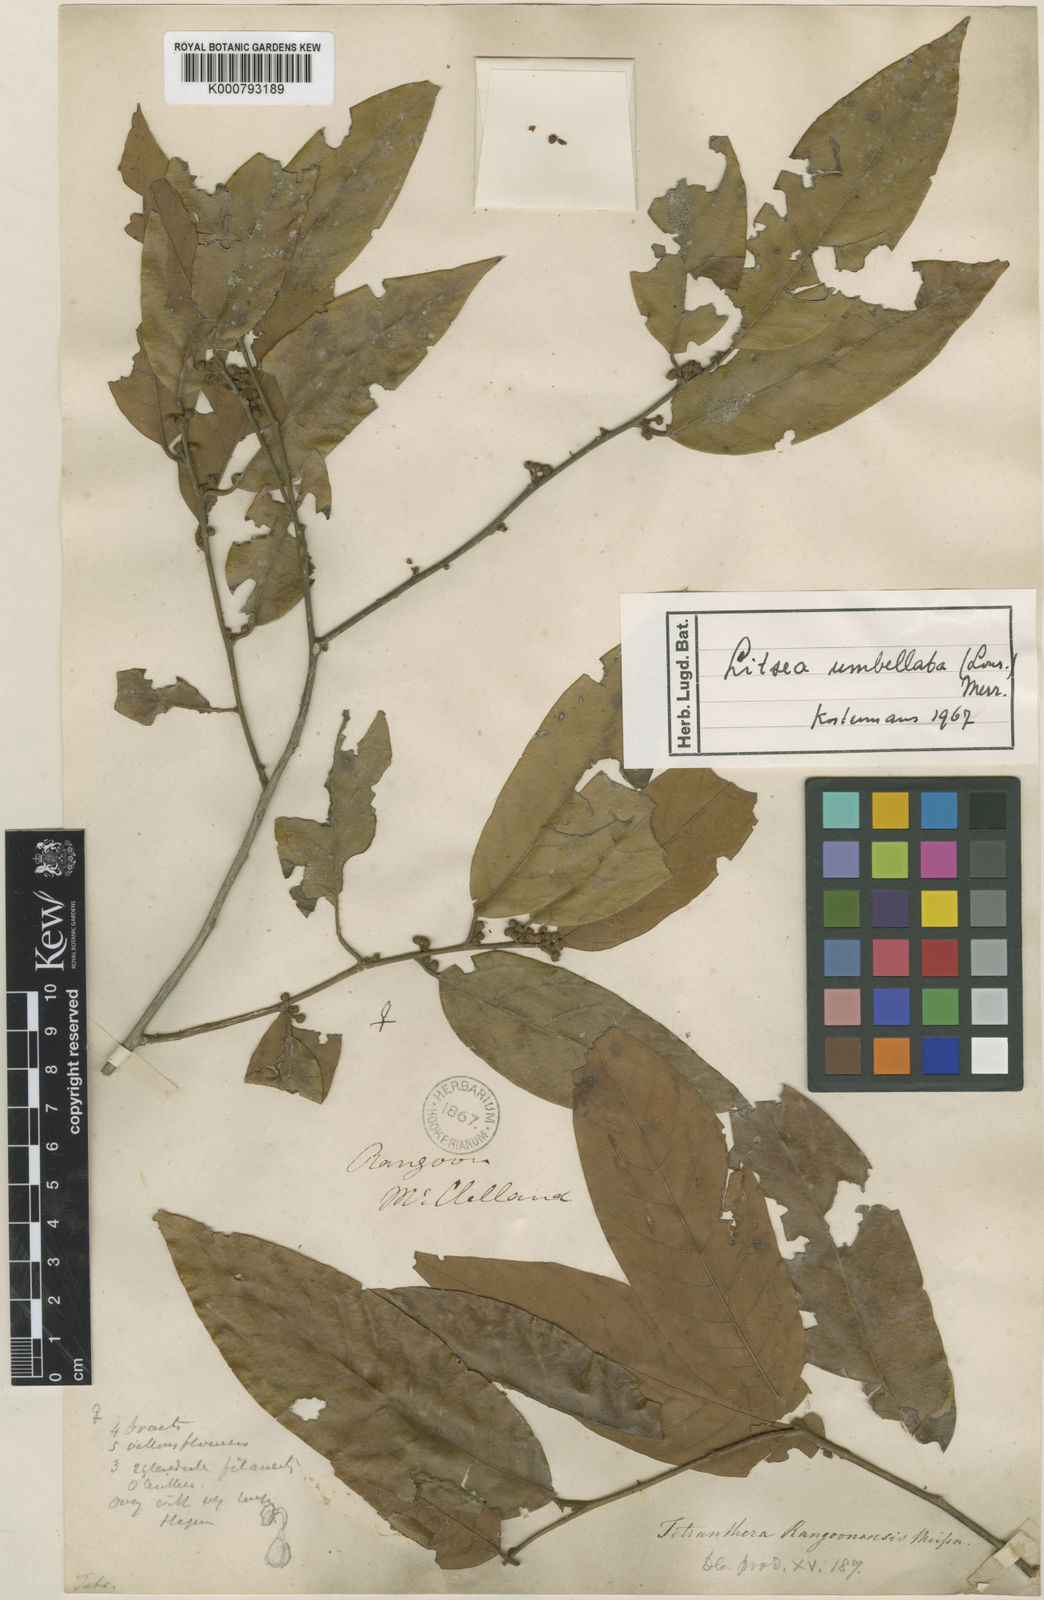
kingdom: Plantae
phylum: Tracheophyta
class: Magnoliopsida
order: Laurales
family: Lauraceae
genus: Litsea
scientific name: Litsea umbellata
